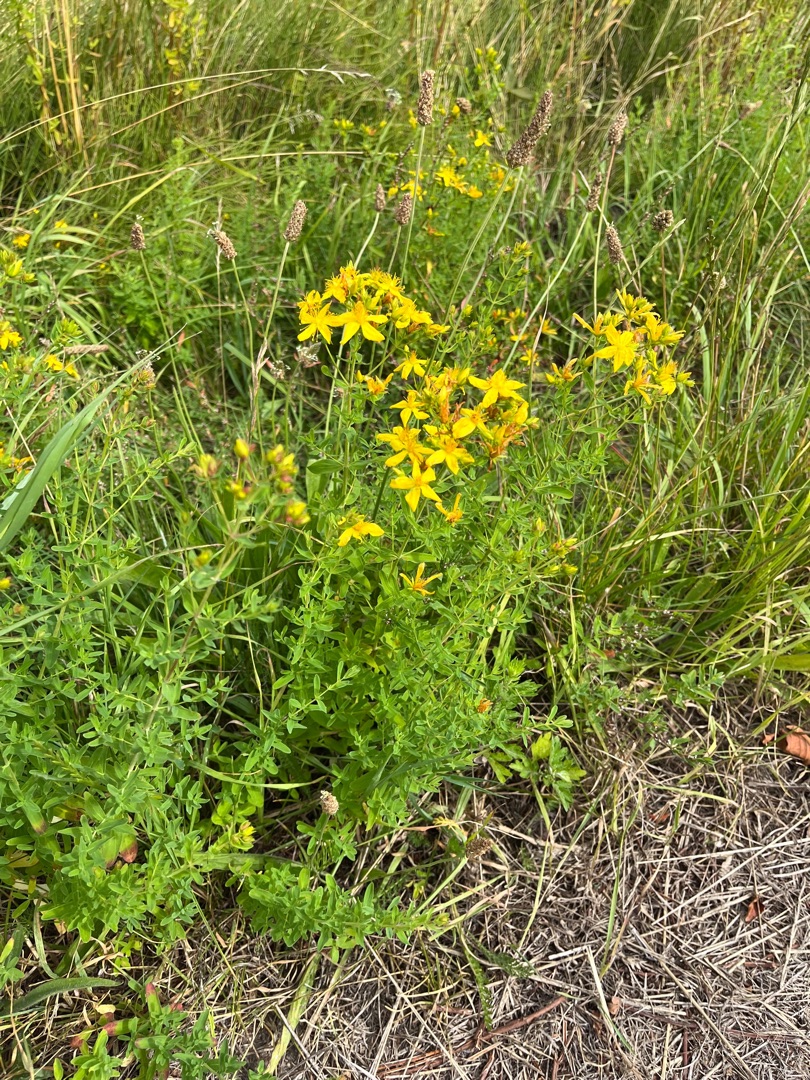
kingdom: Plantae
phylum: Tracheophyta
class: Magnoliopsida
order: Malpighiales
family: Hypericaceae
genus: Hypericum
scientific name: Hypericum perforatum
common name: Prikbladet perikon
